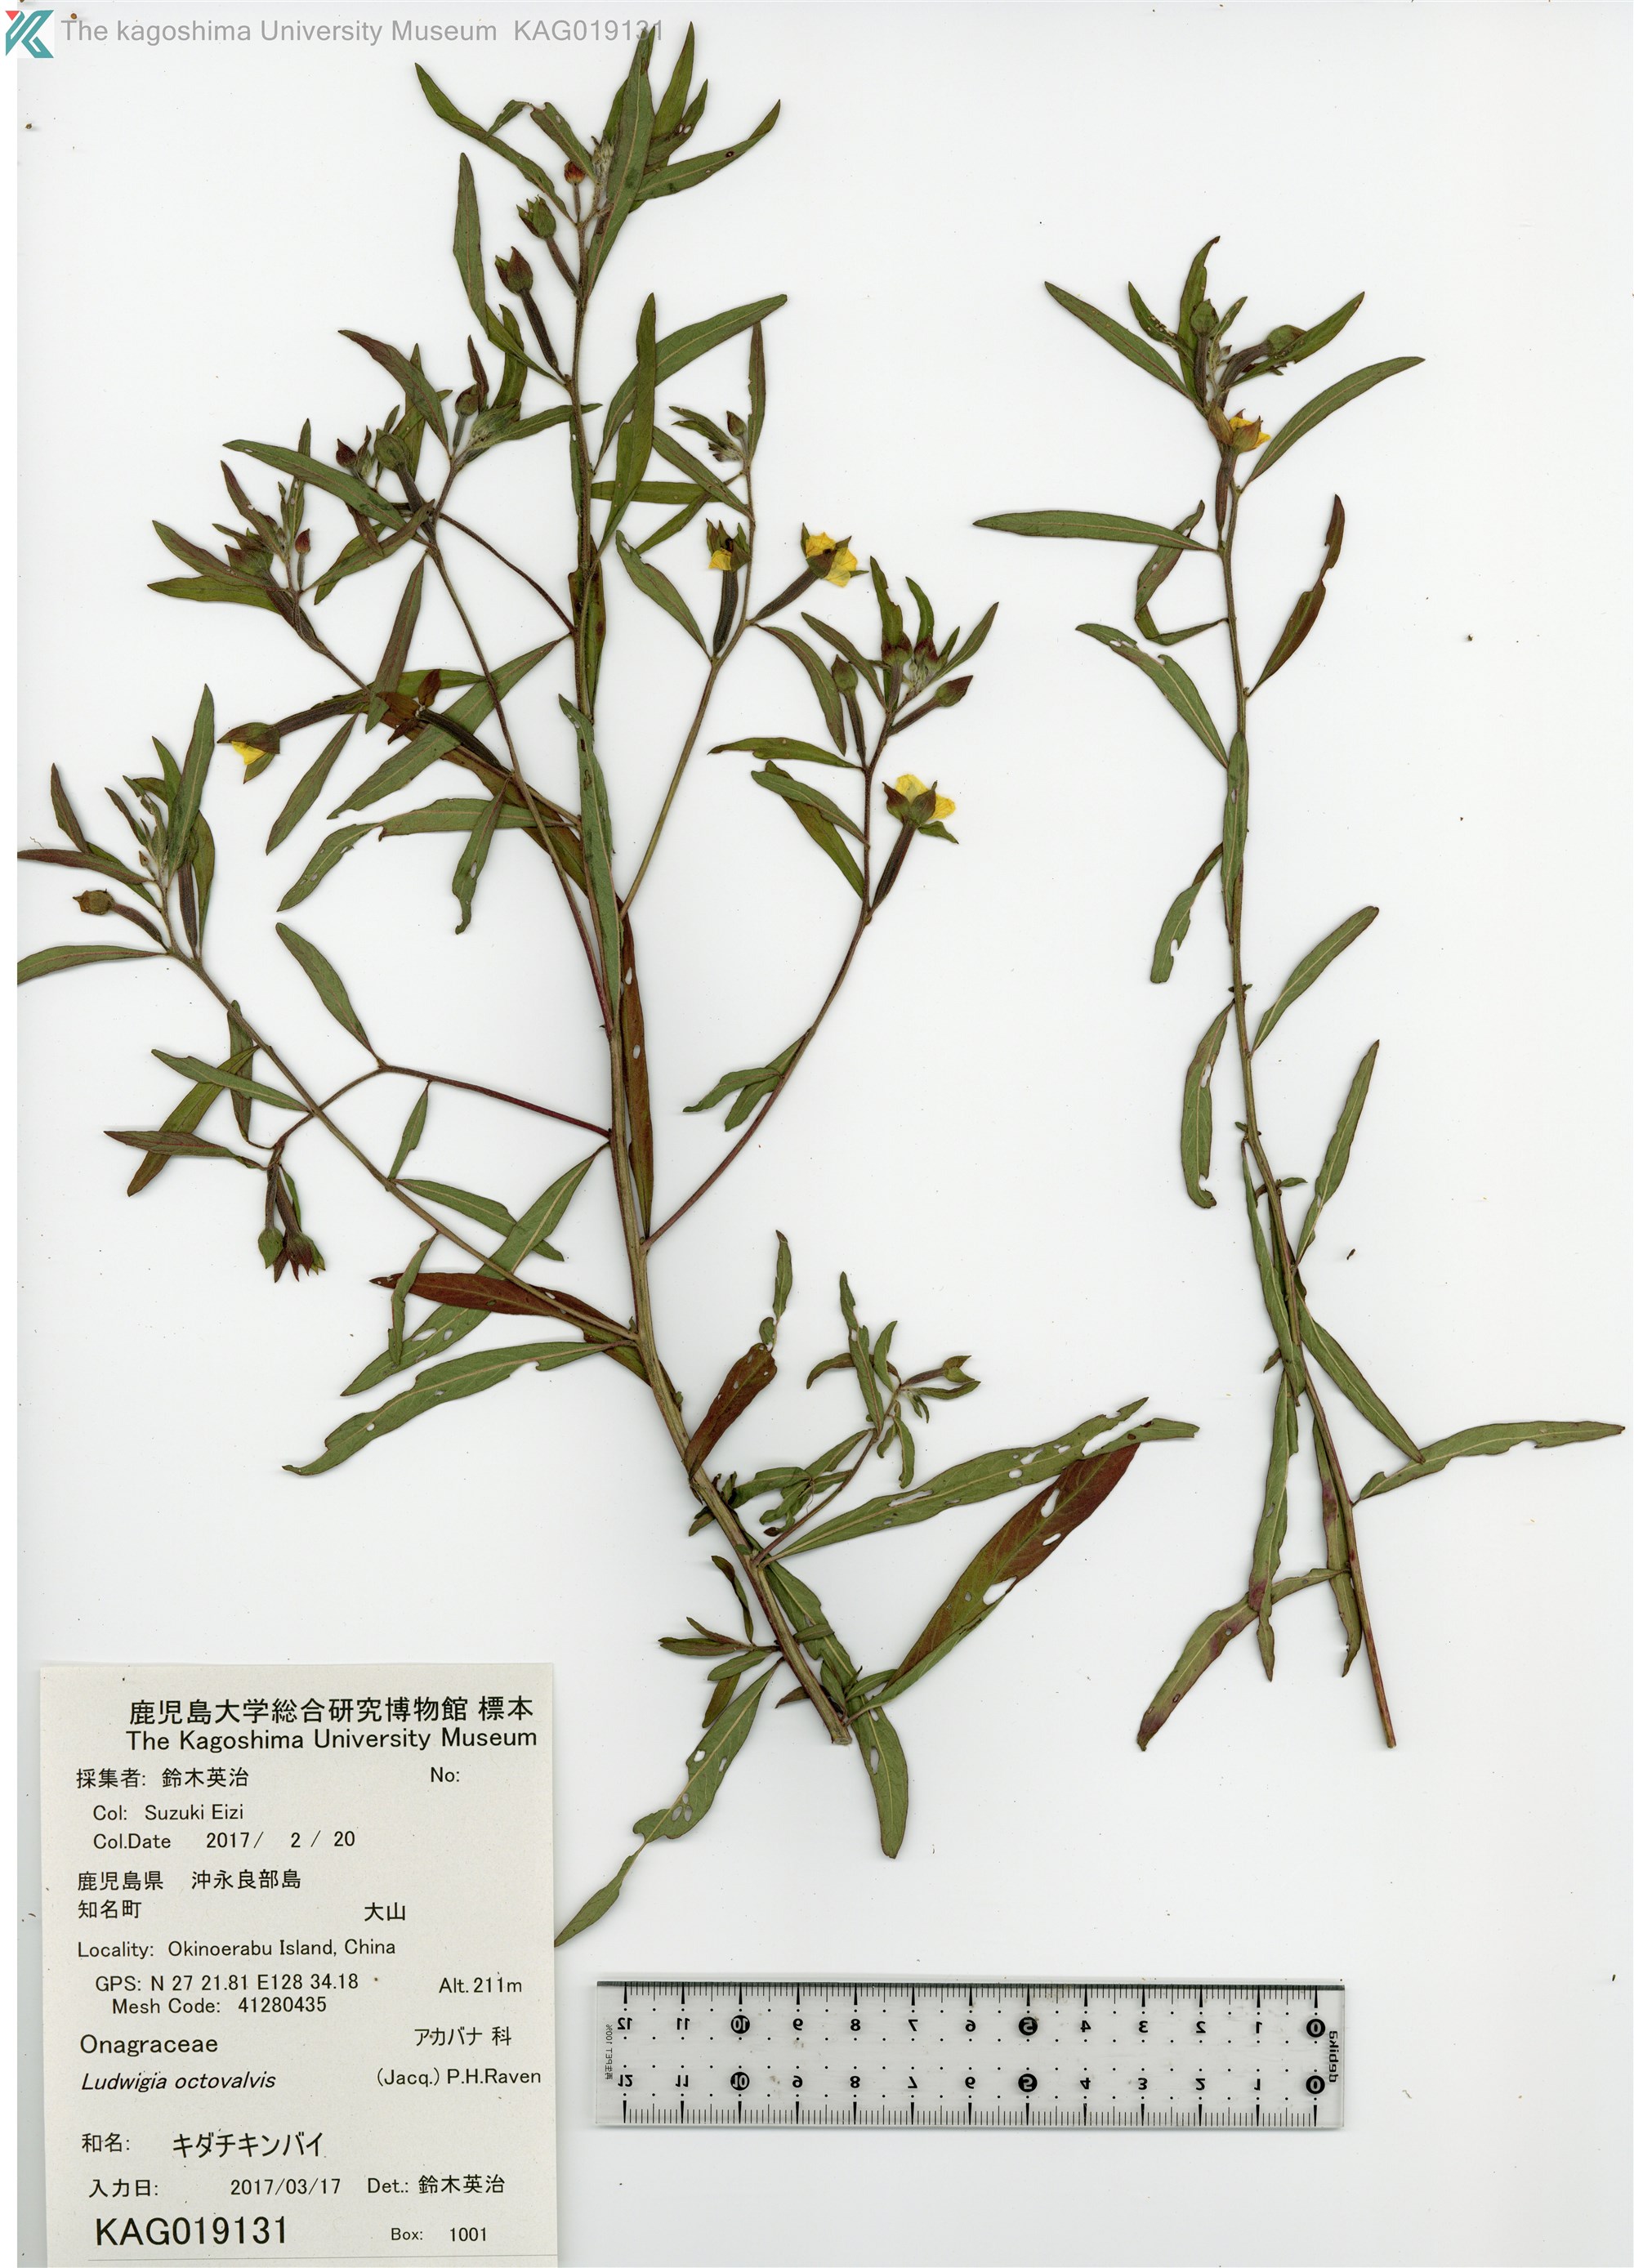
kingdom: Plantae
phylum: Tracheophyta
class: Magnoliopsida
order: Myrtales
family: Onagraceae
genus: Ludwigia
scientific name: Ludwigia octovalvis
